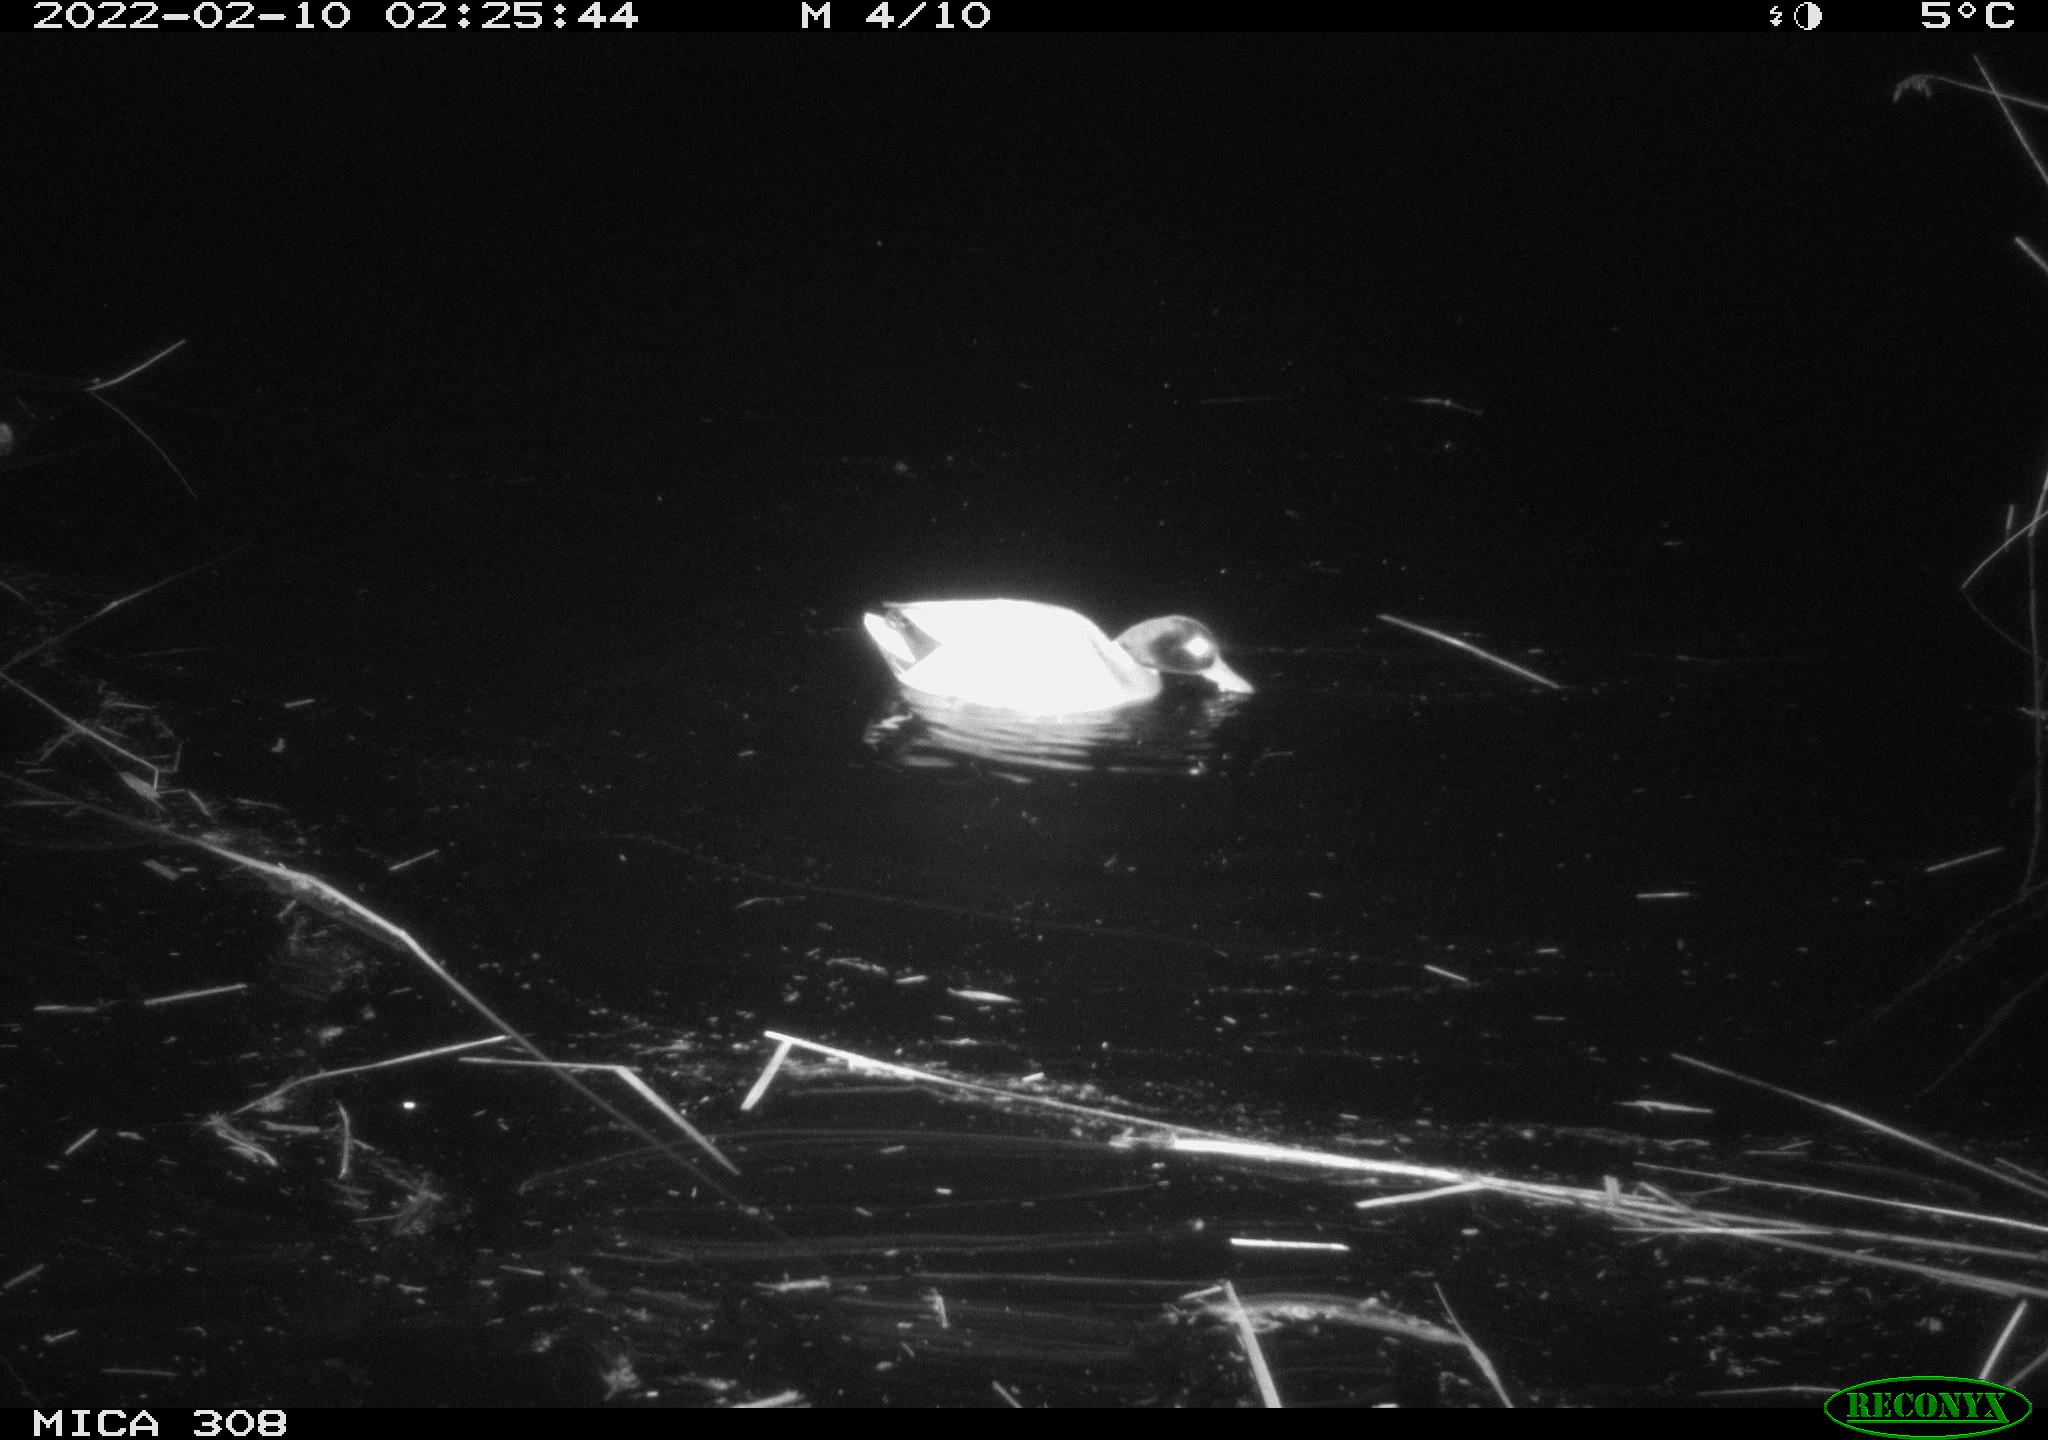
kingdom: Animalia
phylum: Chordata
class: Aves
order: Anseriformes
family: Anatidae
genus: Anas
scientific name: Anas platyrhynchos
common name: Mallard
